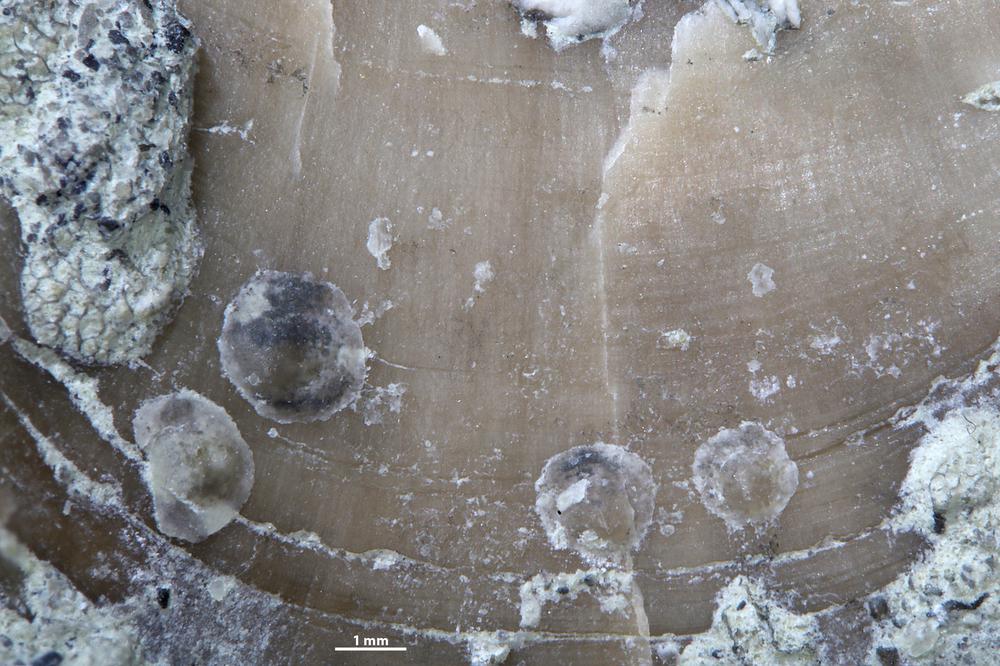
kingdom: Animalia
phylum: Brachiopoda
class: Craniata
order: Craniida
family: Craniidae
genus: Petrocrania
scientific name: Petrocrania
